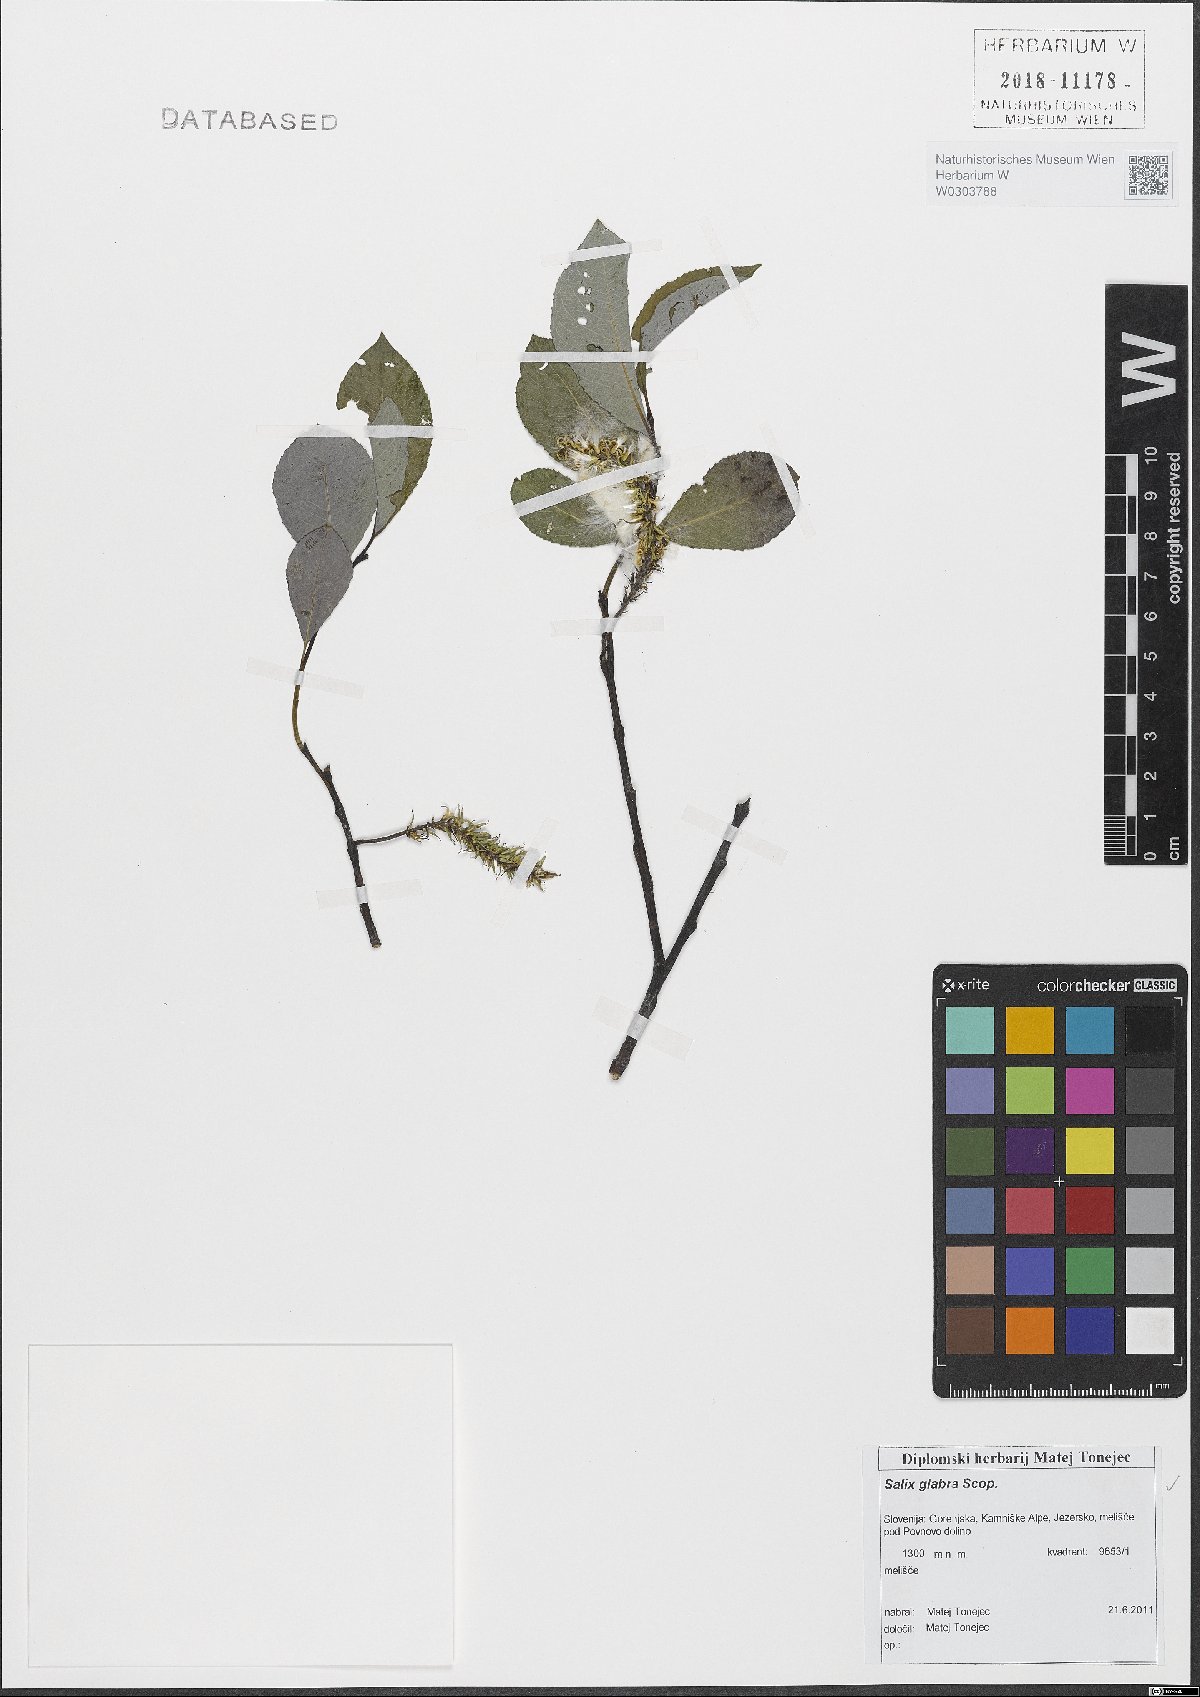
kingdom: Plantae
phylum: Tracheophyta
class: Magnoliopsida
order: Malpighiales
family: Salicaceae
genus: Salix
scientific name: Salix glabra
